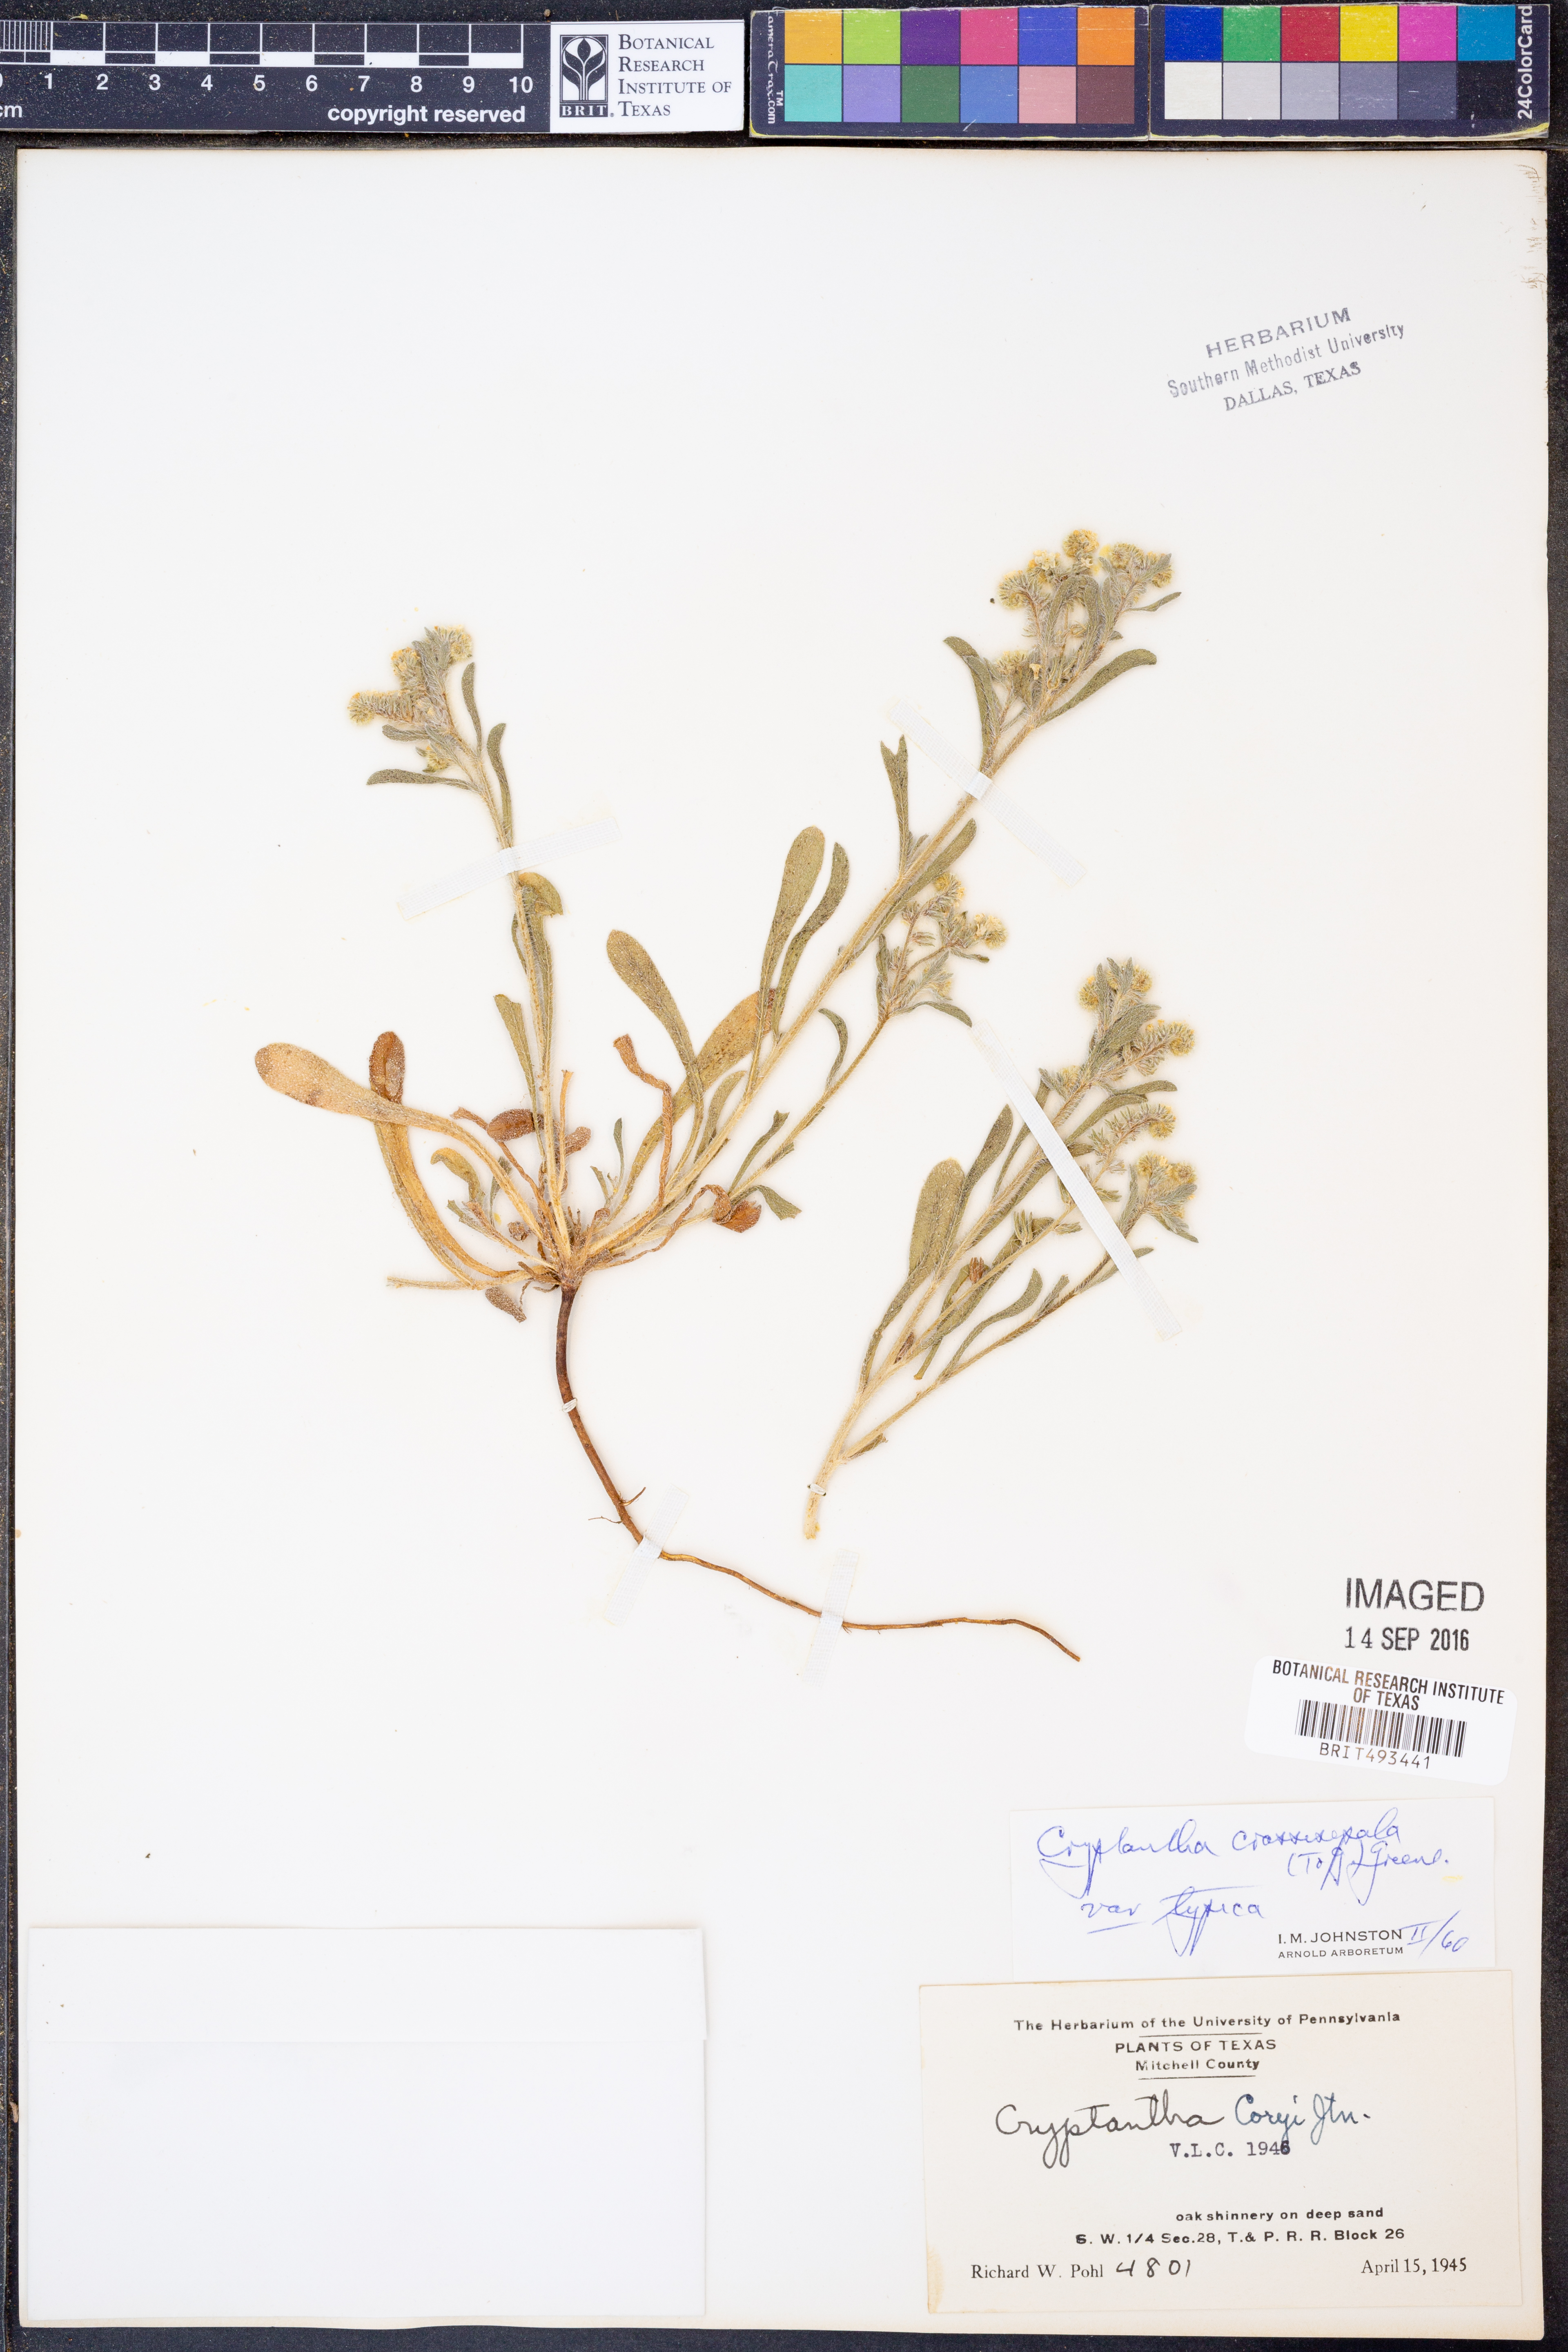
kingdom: Plantae
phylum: Tracheophyta
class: Magnoliopsida
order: Boraginales
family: Boraginaceae
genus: Cryptantha
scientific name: Cryptantha crassisepala
